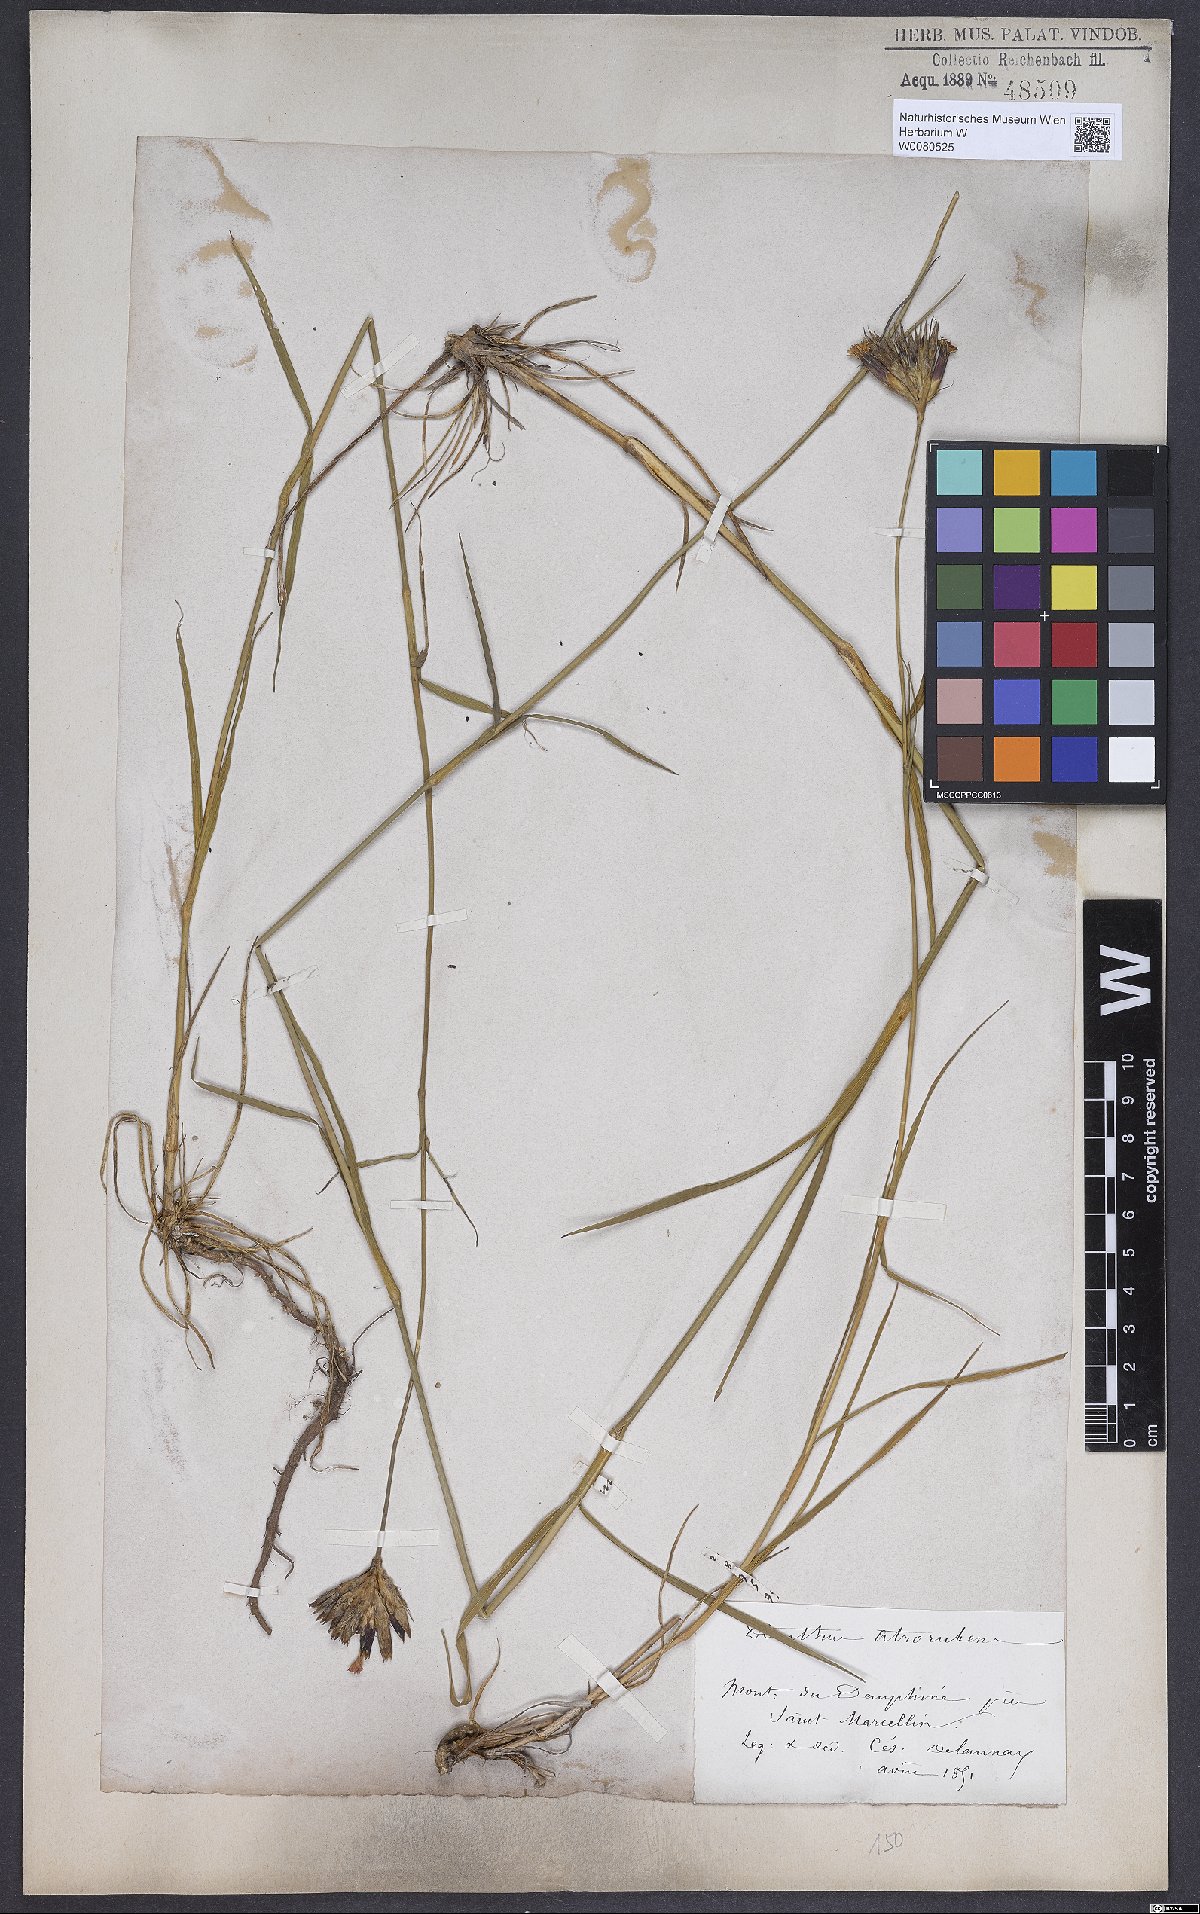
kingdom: Plantae
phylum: Tracheophyta
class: Magnoliopsida
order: Caryophyllales
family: Caryophyllaceae
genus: Dianthus
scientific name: Dianthus carthusianorum
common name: Carthusian pink
